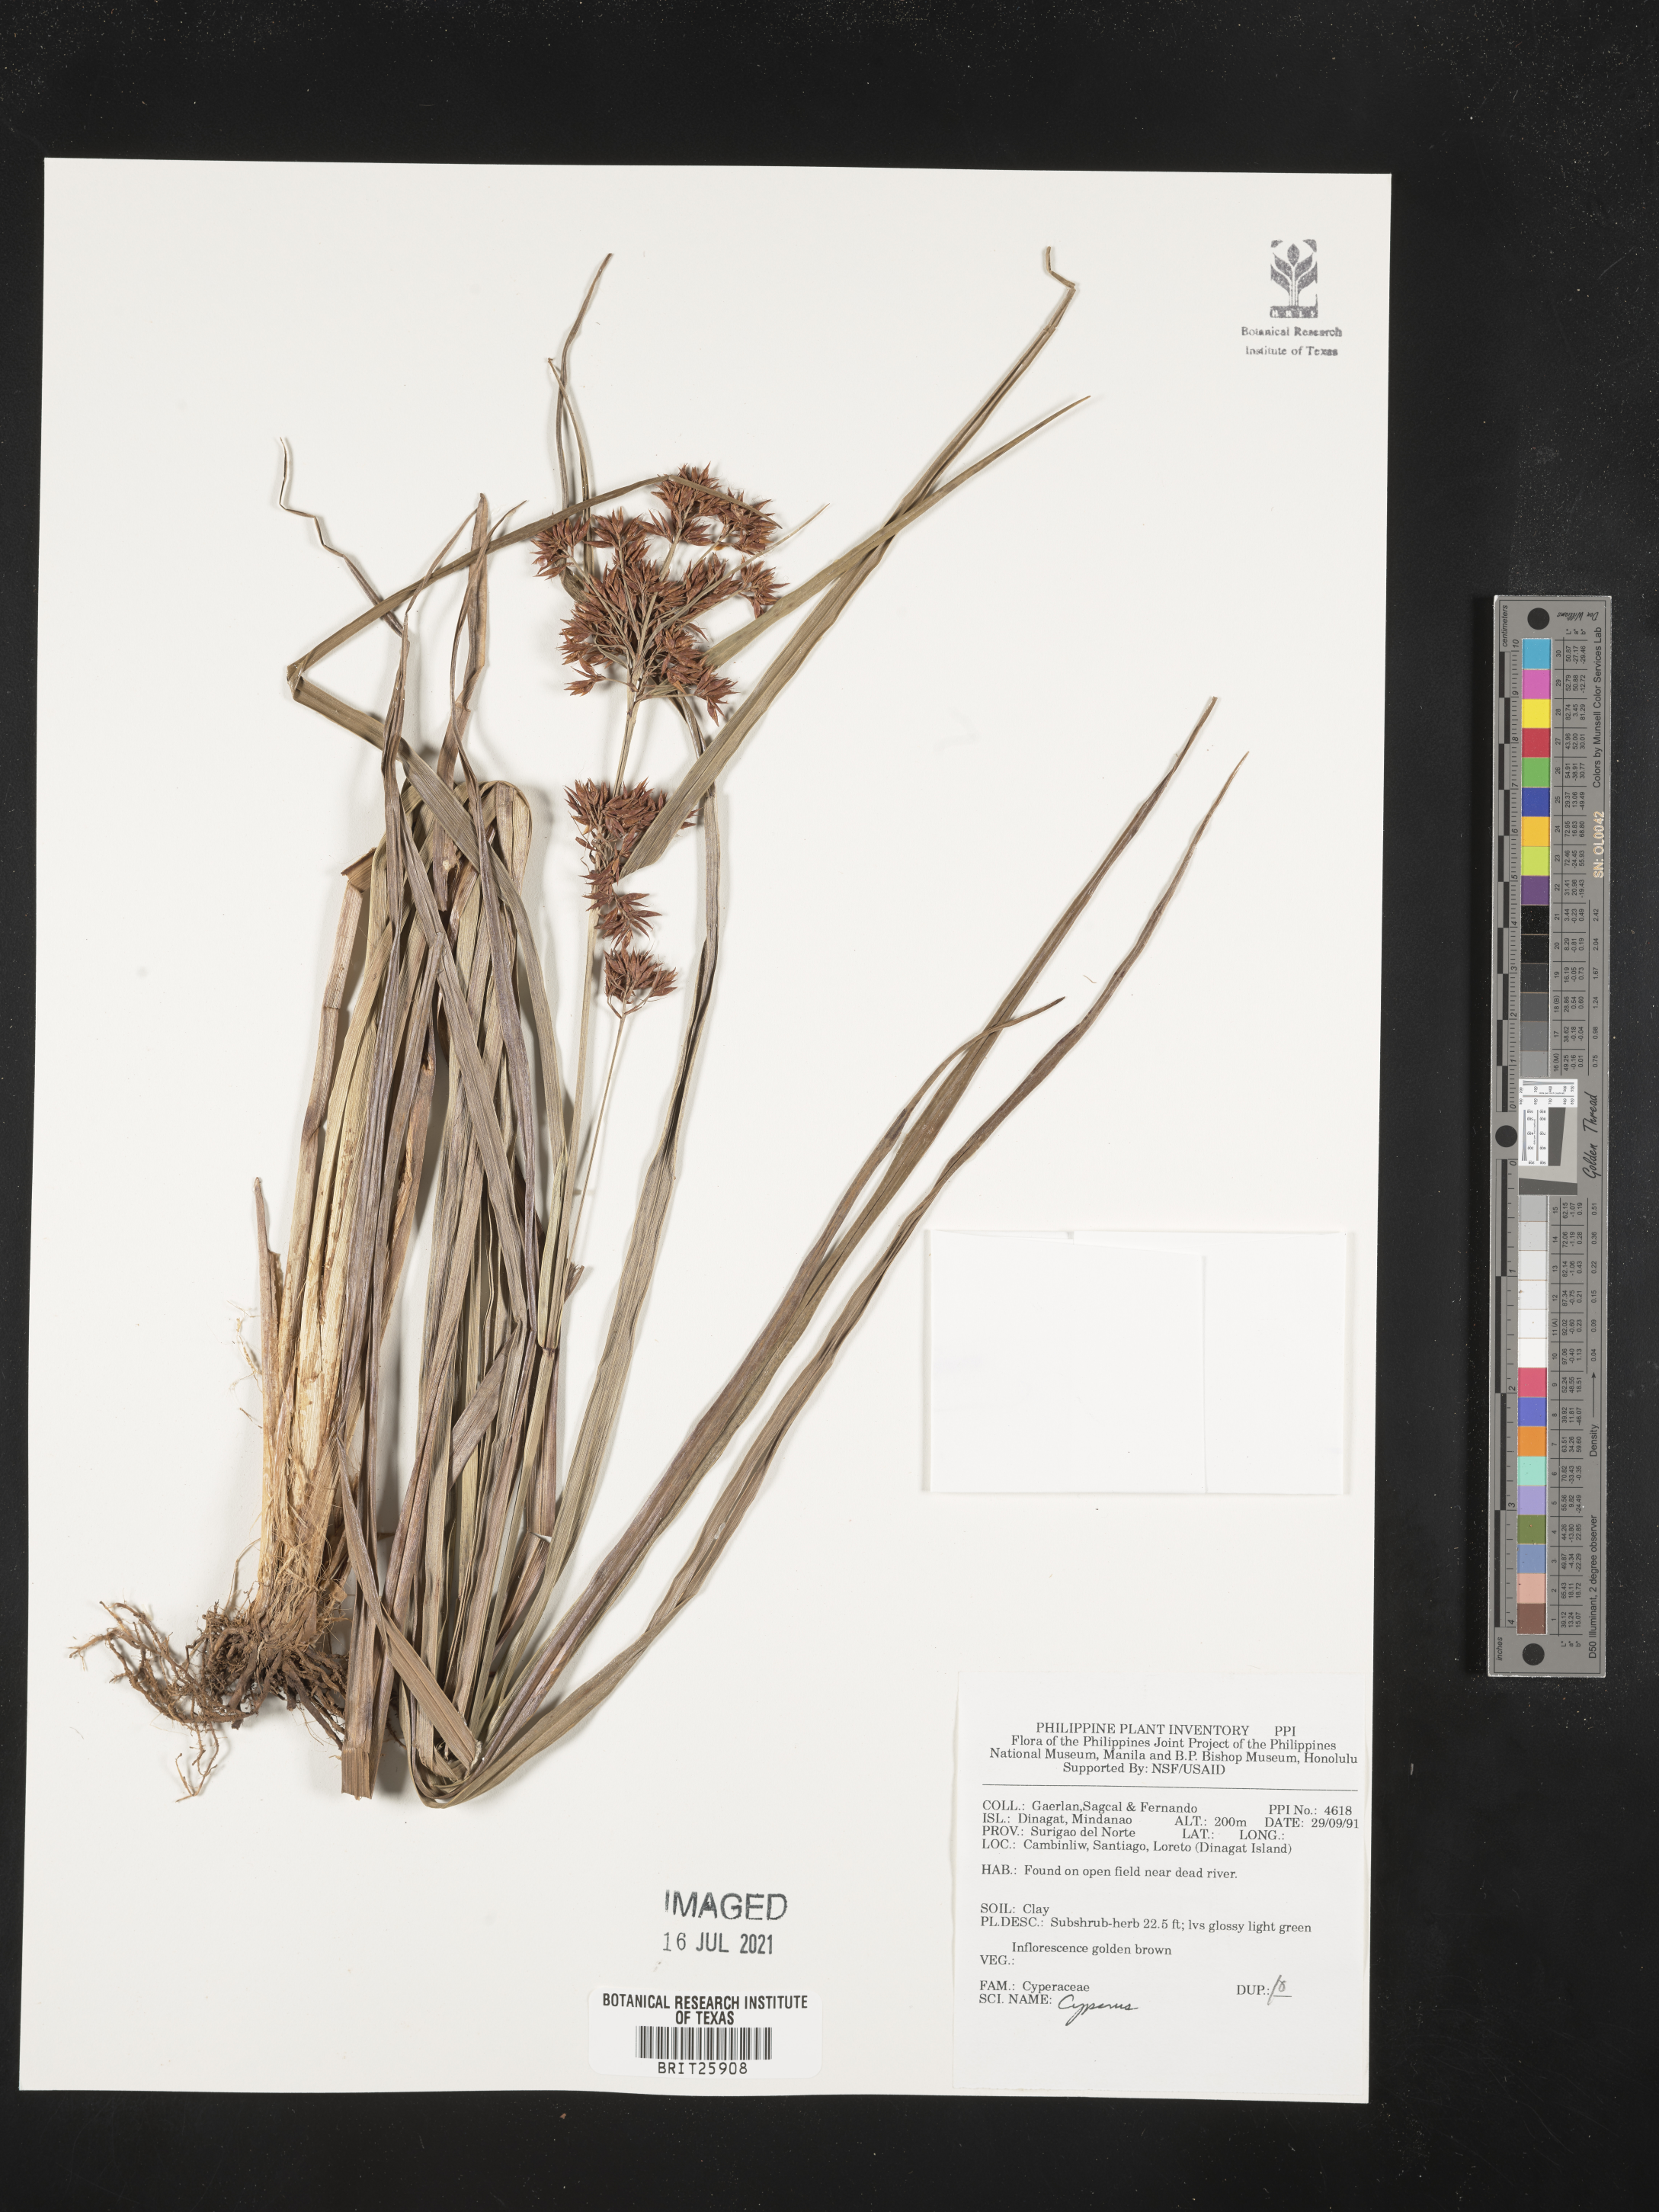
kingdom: Plantae
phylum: Tracheophyta
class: Liliopsida
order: Poales
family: Cyperaceae
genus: Cyperus
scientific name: Cyperus
